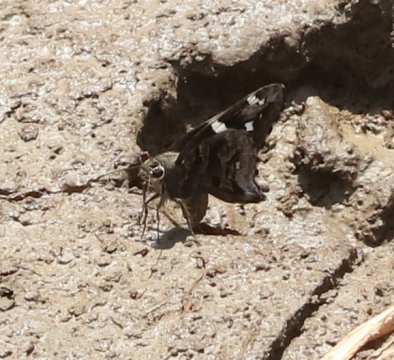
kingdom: Animalia
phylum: Arthropoda
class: Insecta
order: Lepidoptera
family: Hesperiidae
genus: Codatractus
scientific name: Codatractus melon
